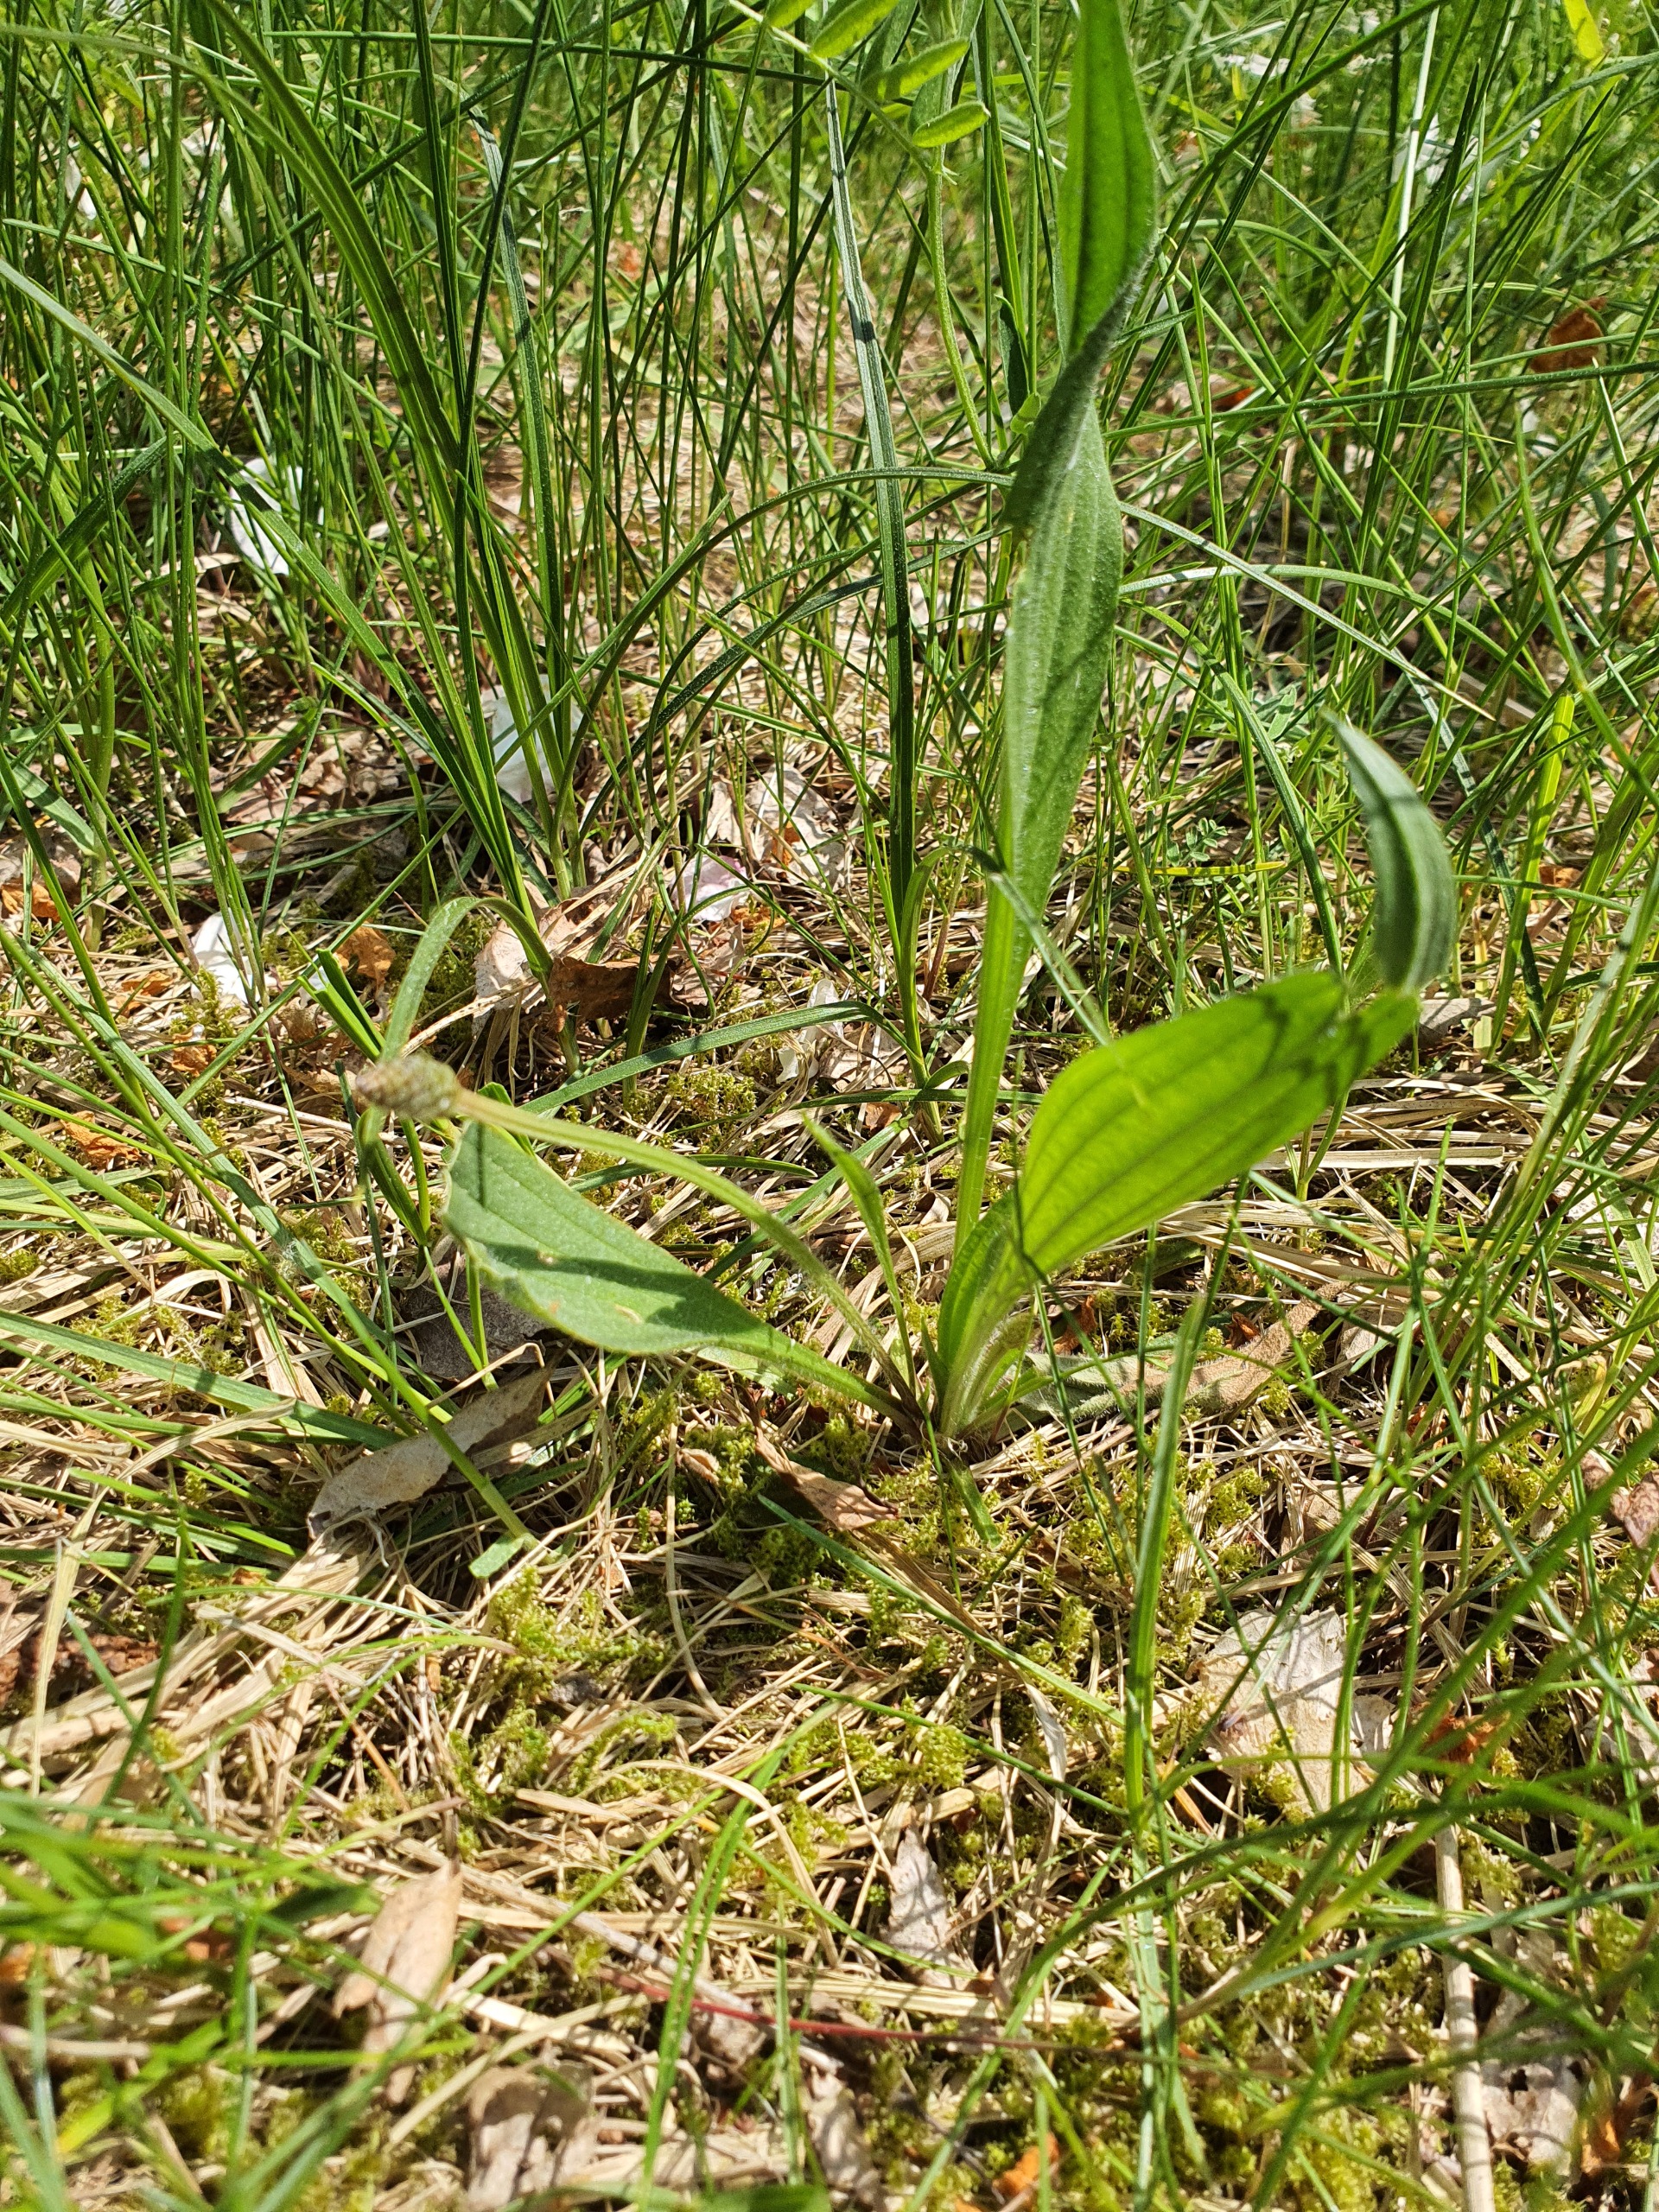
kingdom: Plantae
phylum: Tracheophyta
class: Magnoliopsida
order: Lamiales
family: Plantaginaceae
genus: Plantago
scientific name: Plantago lanceolata
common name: Lancet-vejbred
